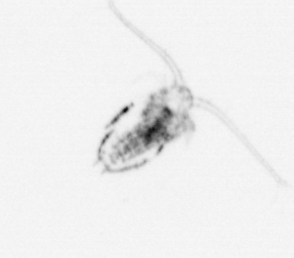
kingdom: Animalia
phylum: Arthropoda
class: Copepoda
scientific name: Copepoda
